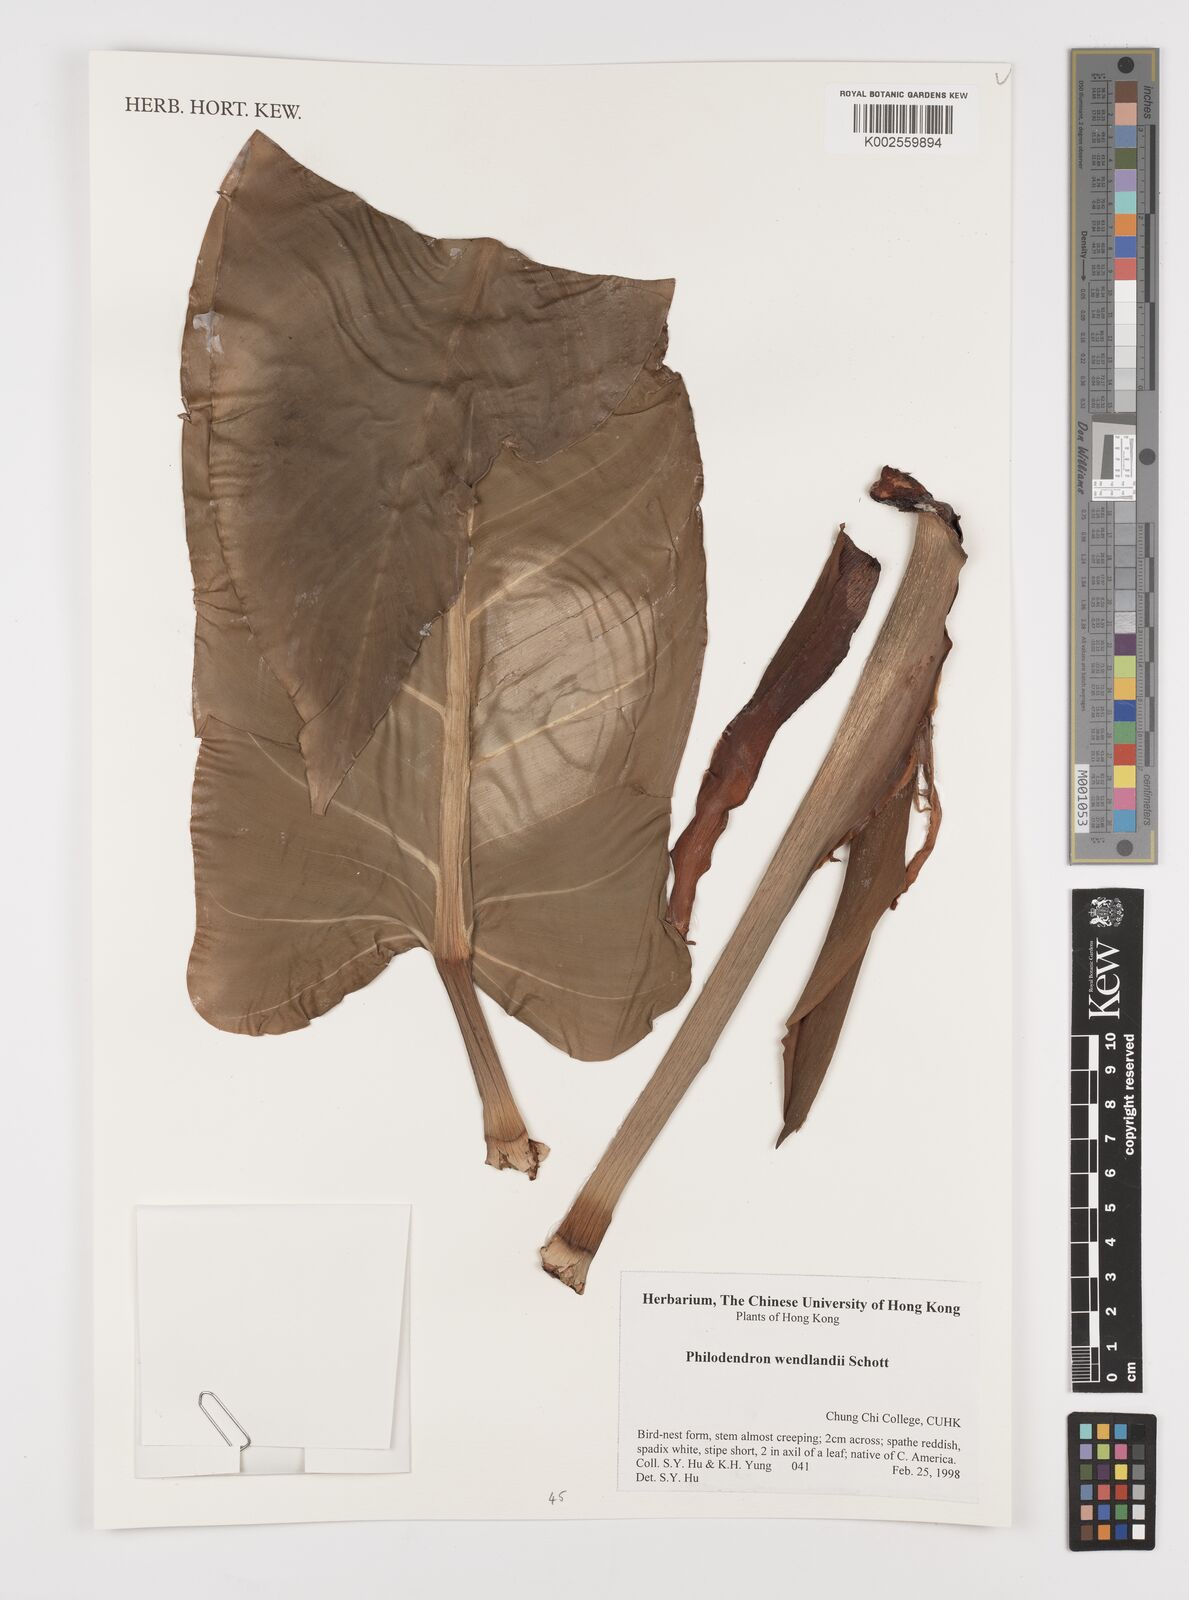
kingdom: Plantae
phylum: Tracheophyta
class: Liliopsida
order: Alismatales
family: Araceae
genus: Philodendron
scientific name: Philodendron wendlandii
